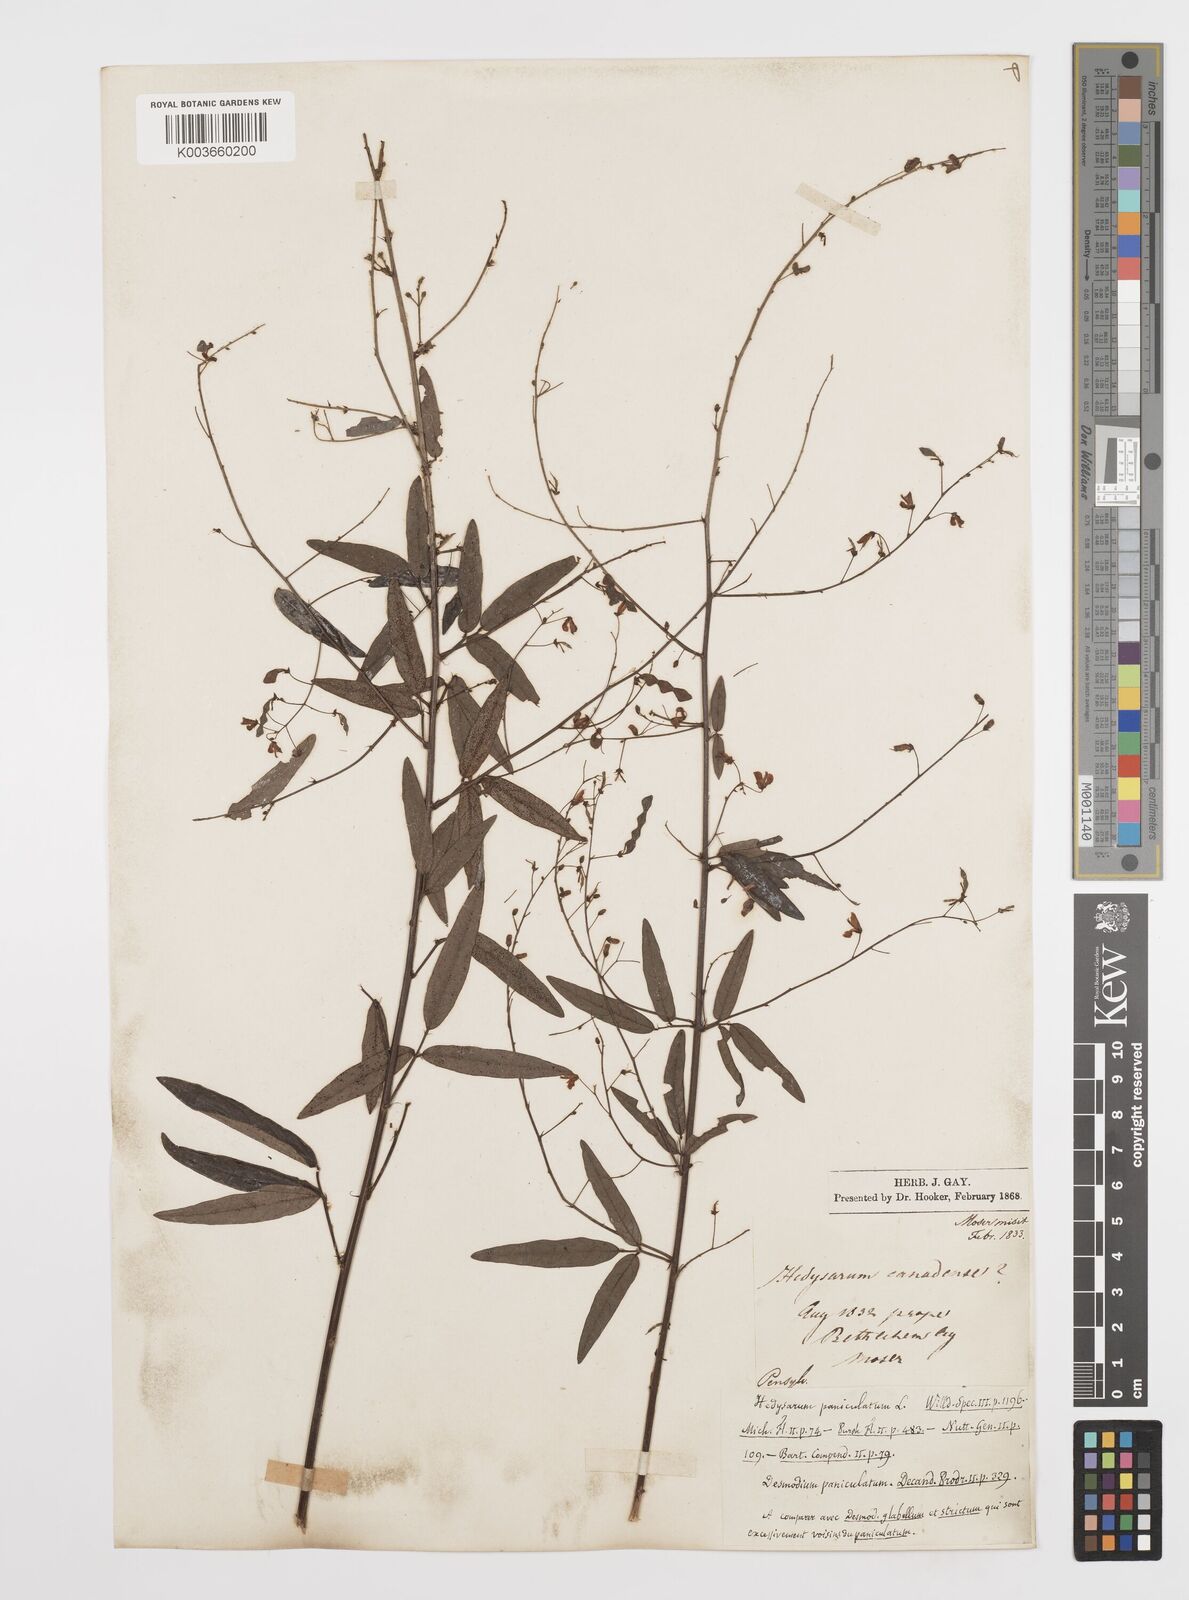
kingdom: Plantae
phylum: Tracheophyta
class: Magnoliopsida
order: Fabales
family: Fabaceae
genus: Desmodium
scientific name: Desmodium paniculatum
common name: Panicled tick-clover
